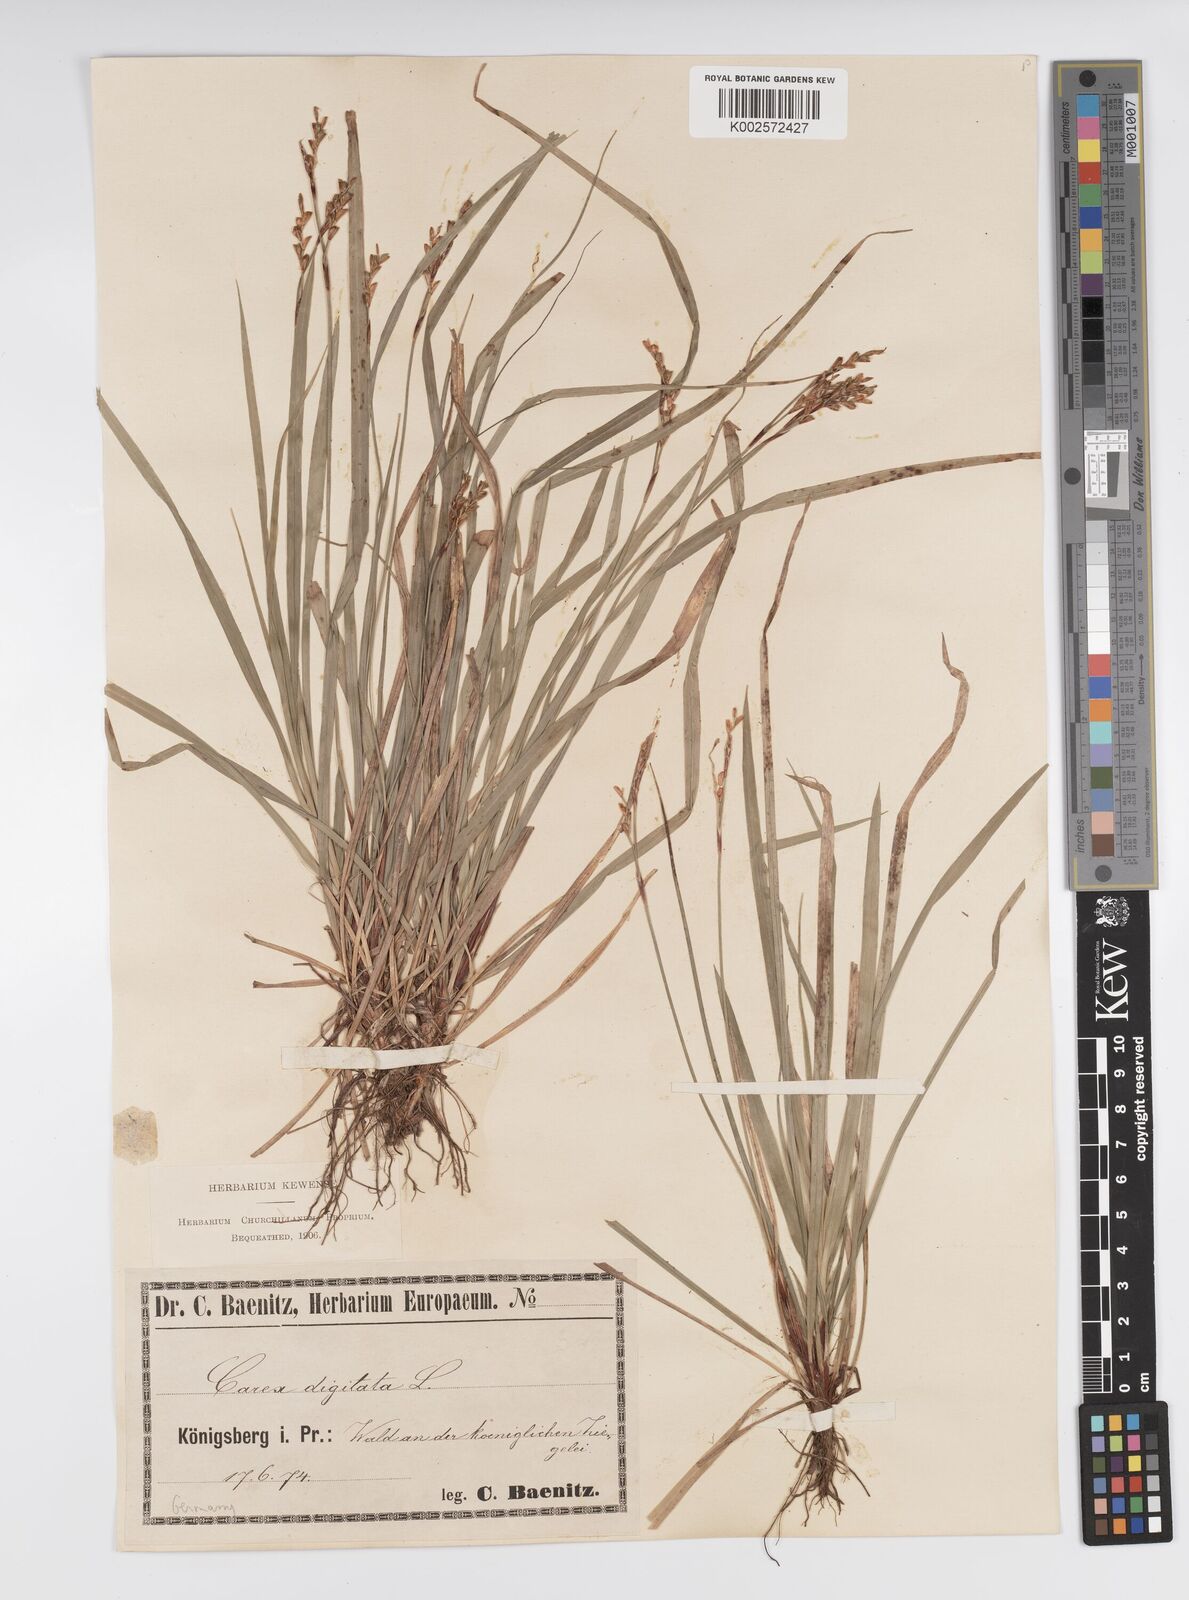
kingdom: Plantae
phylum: Tracheophyta
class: Liliopsida
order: Poales
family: Cyperaceae
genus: Carex
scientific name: Carex digitata
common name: Fingered sedge
